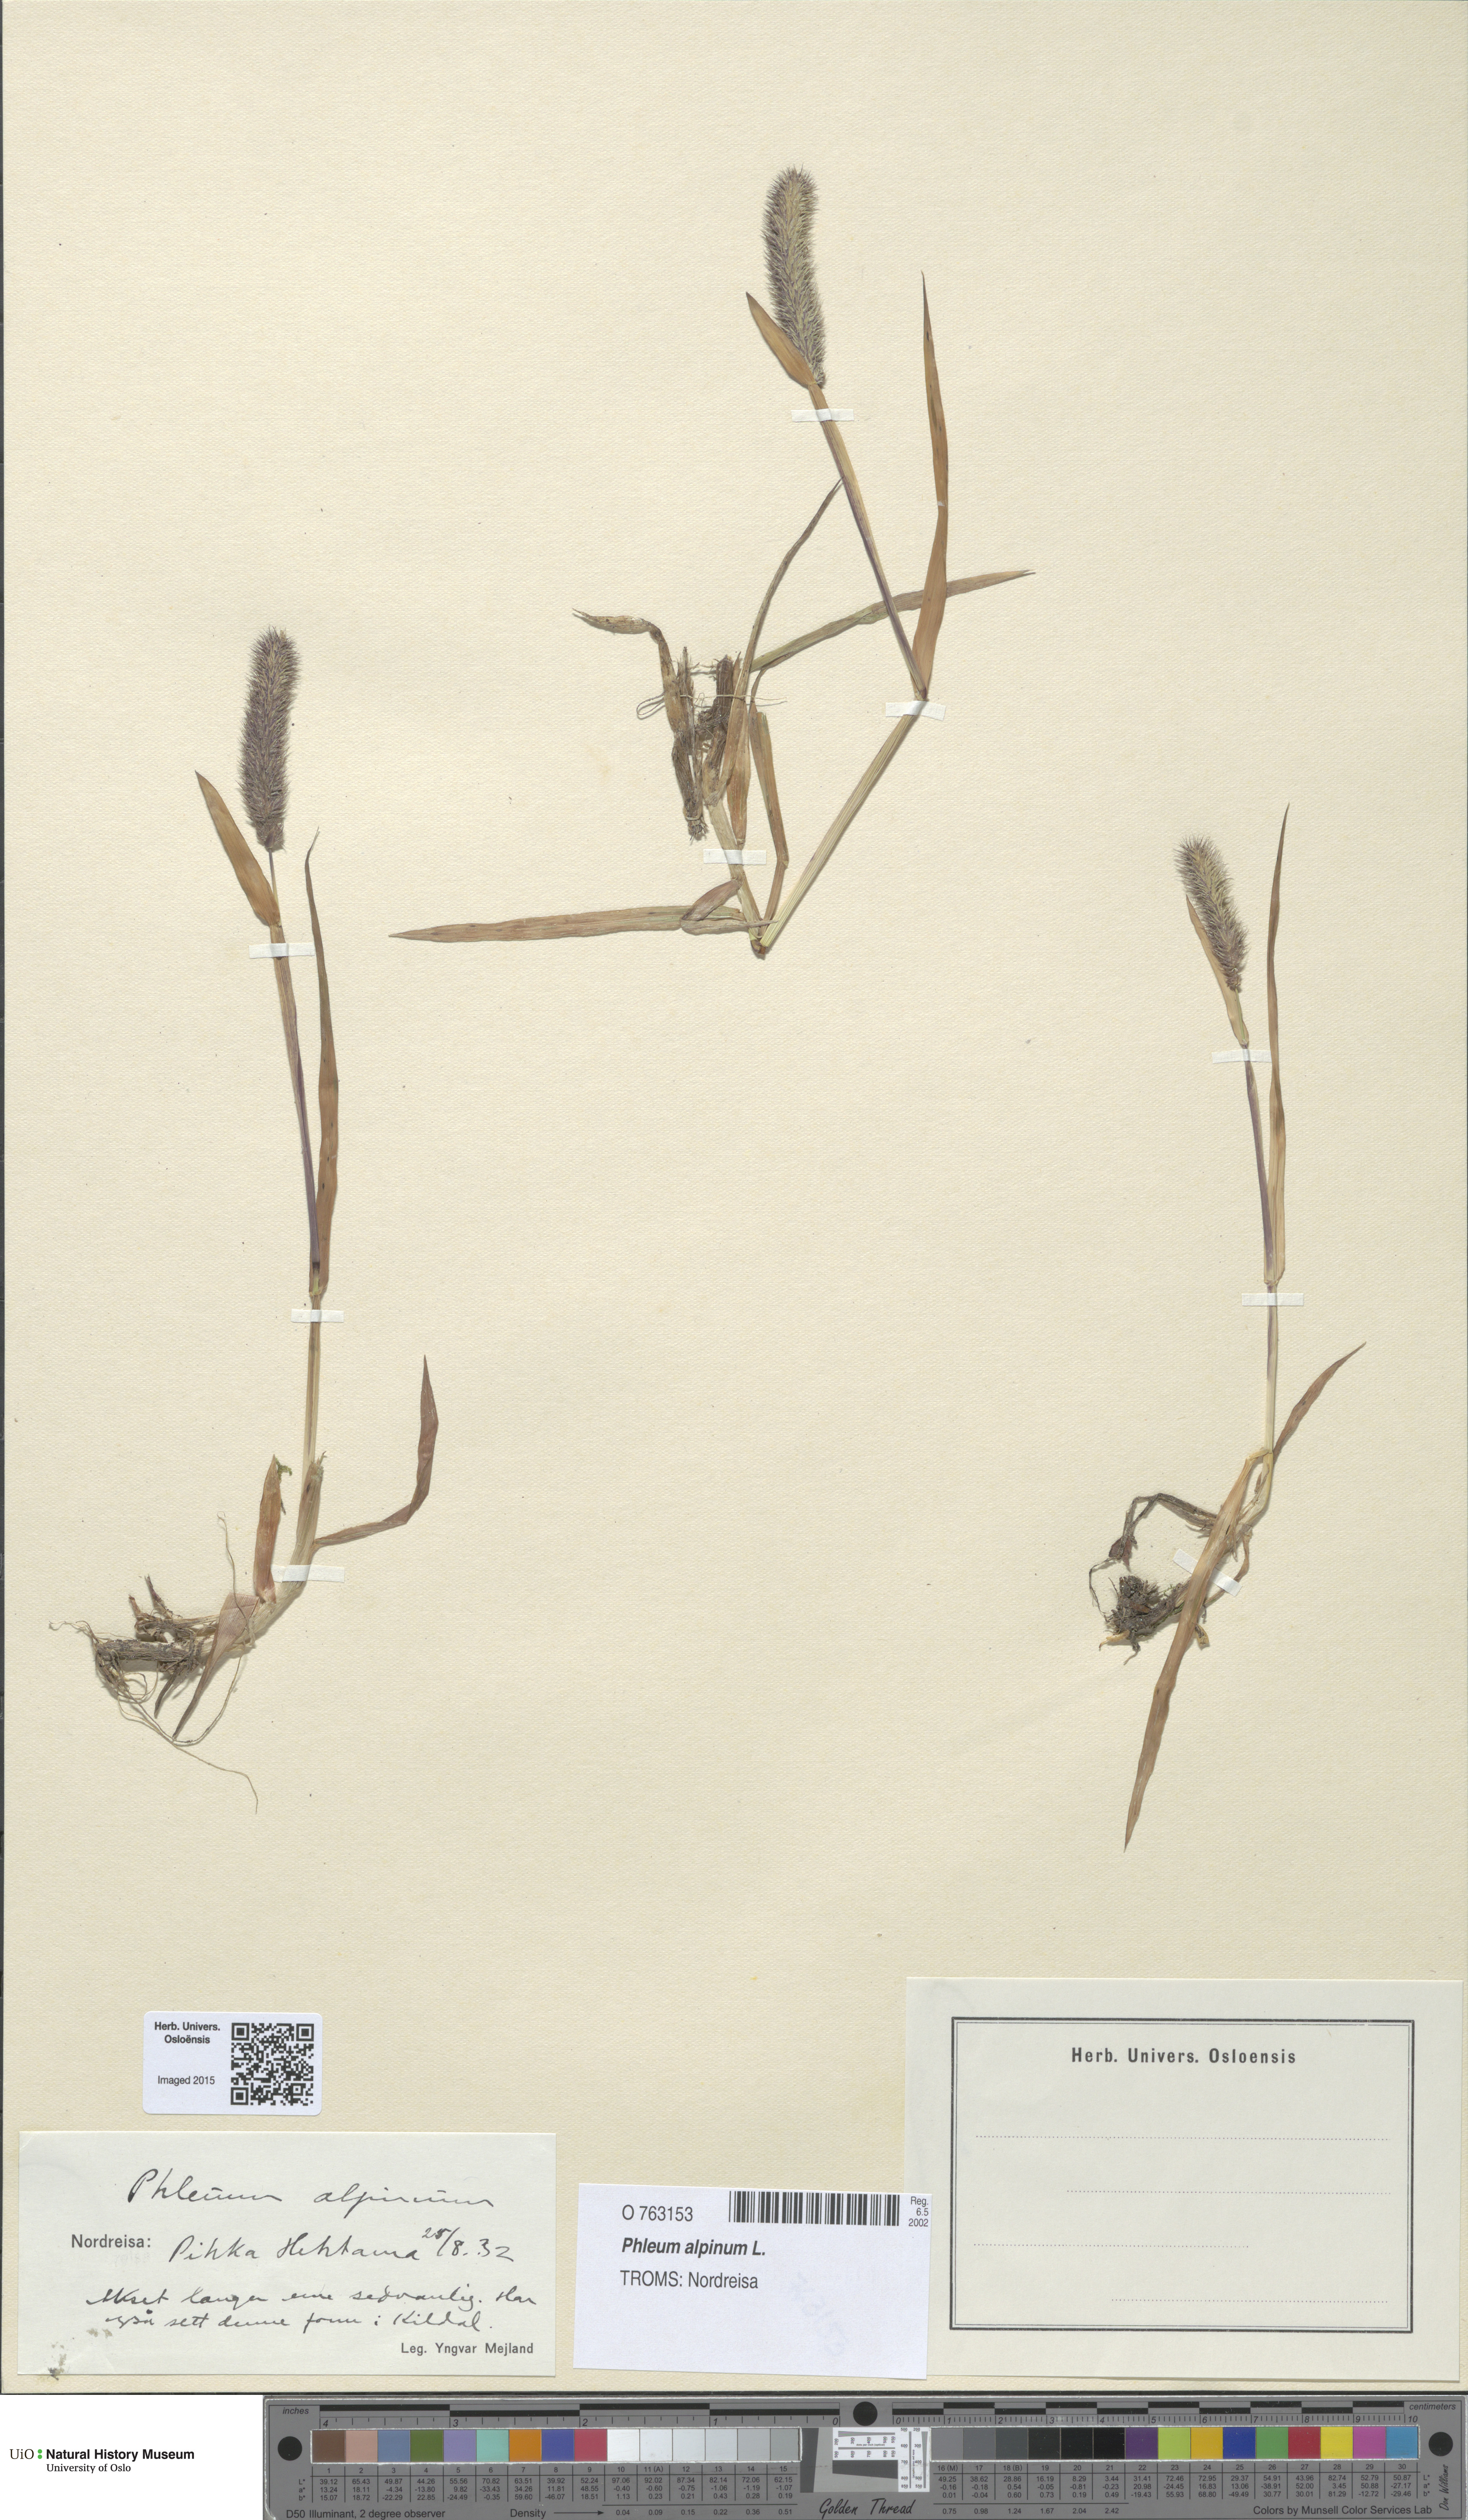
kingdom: Plantae
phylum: Tracheophyta
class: Liliopsida
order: Poales
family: Poaceae
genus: Phleum
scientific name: Phleum alpinum
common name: Alpine cat's-tail
